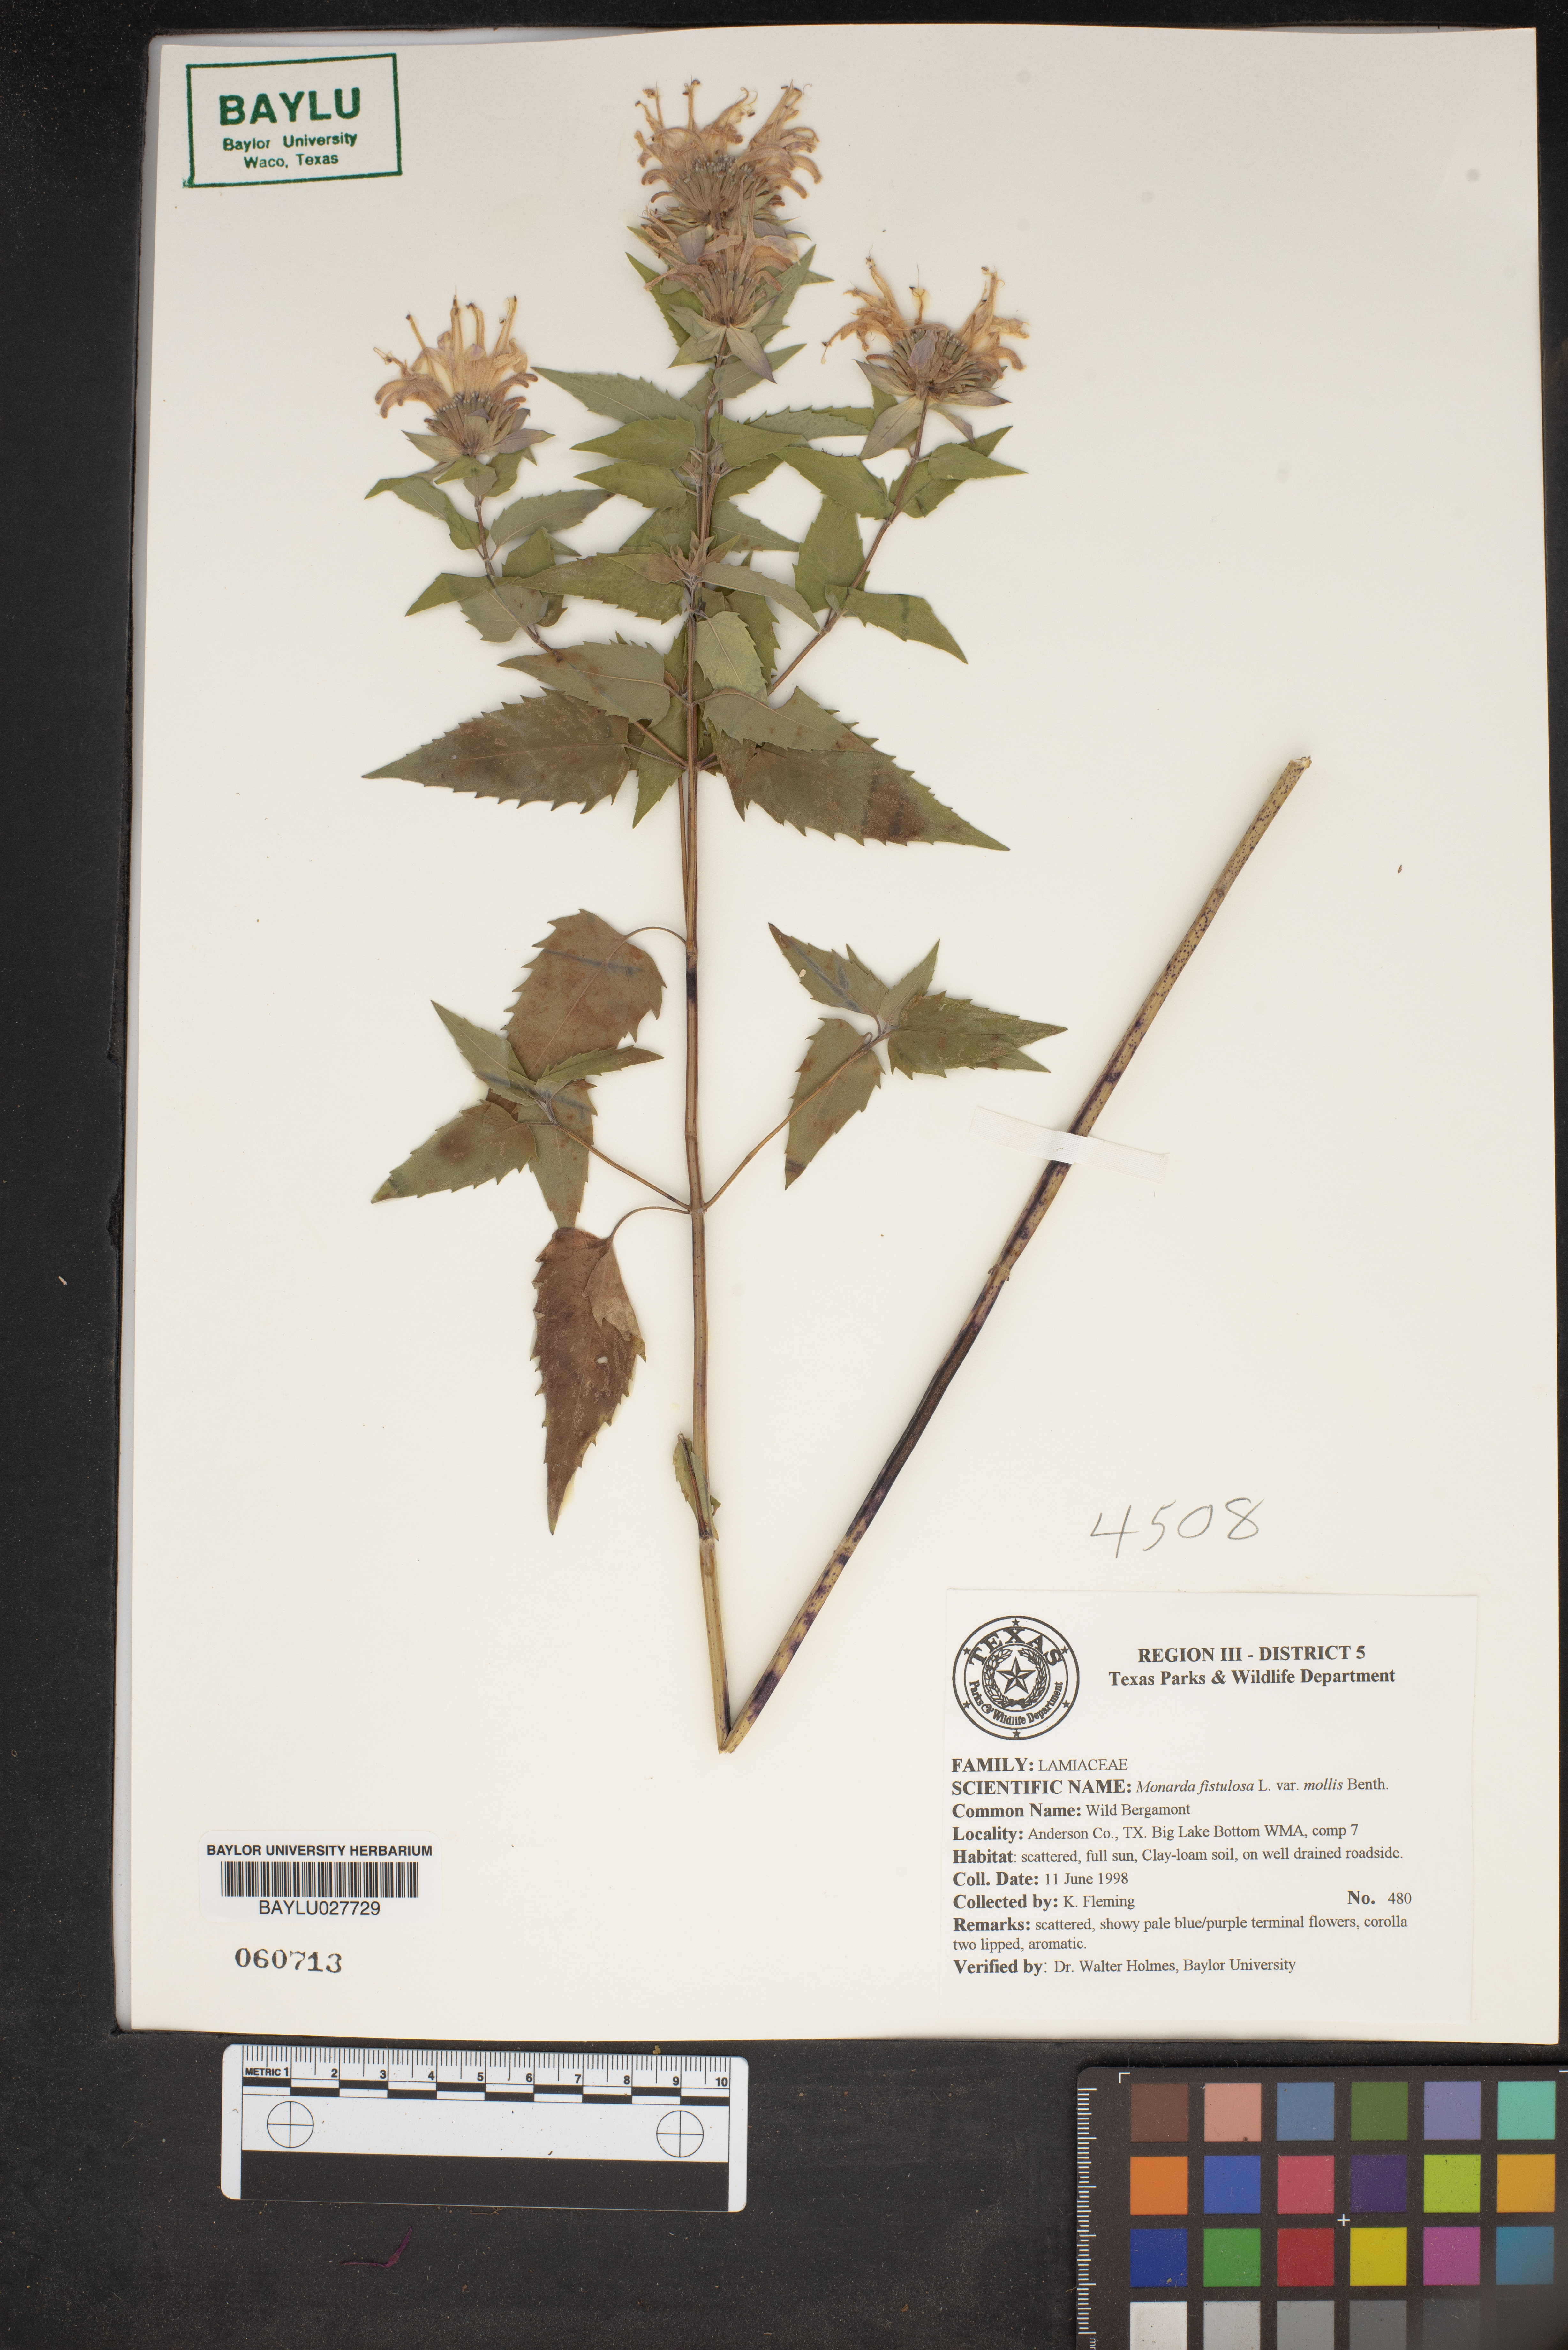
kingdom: Plantae
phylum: Tracheophyta
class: Magnoliopsida
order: Lamiales
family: Lamiaceae
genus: Monarda
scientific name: Monarda fistulosa
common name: Purple beebalm
